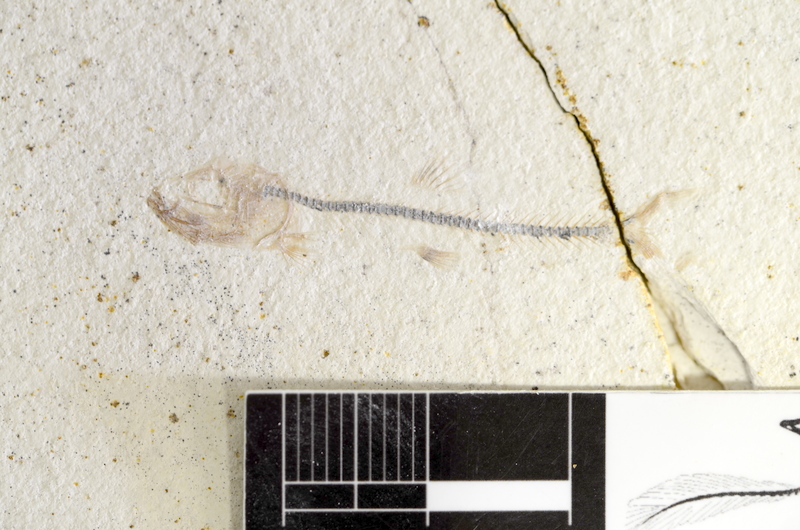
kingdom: Animalia
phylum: Chordata
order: Salmoniformes
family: Orthogonikleithridae
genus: Orthogonikleithrus
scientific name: Orthogonikleithrus hoelli
